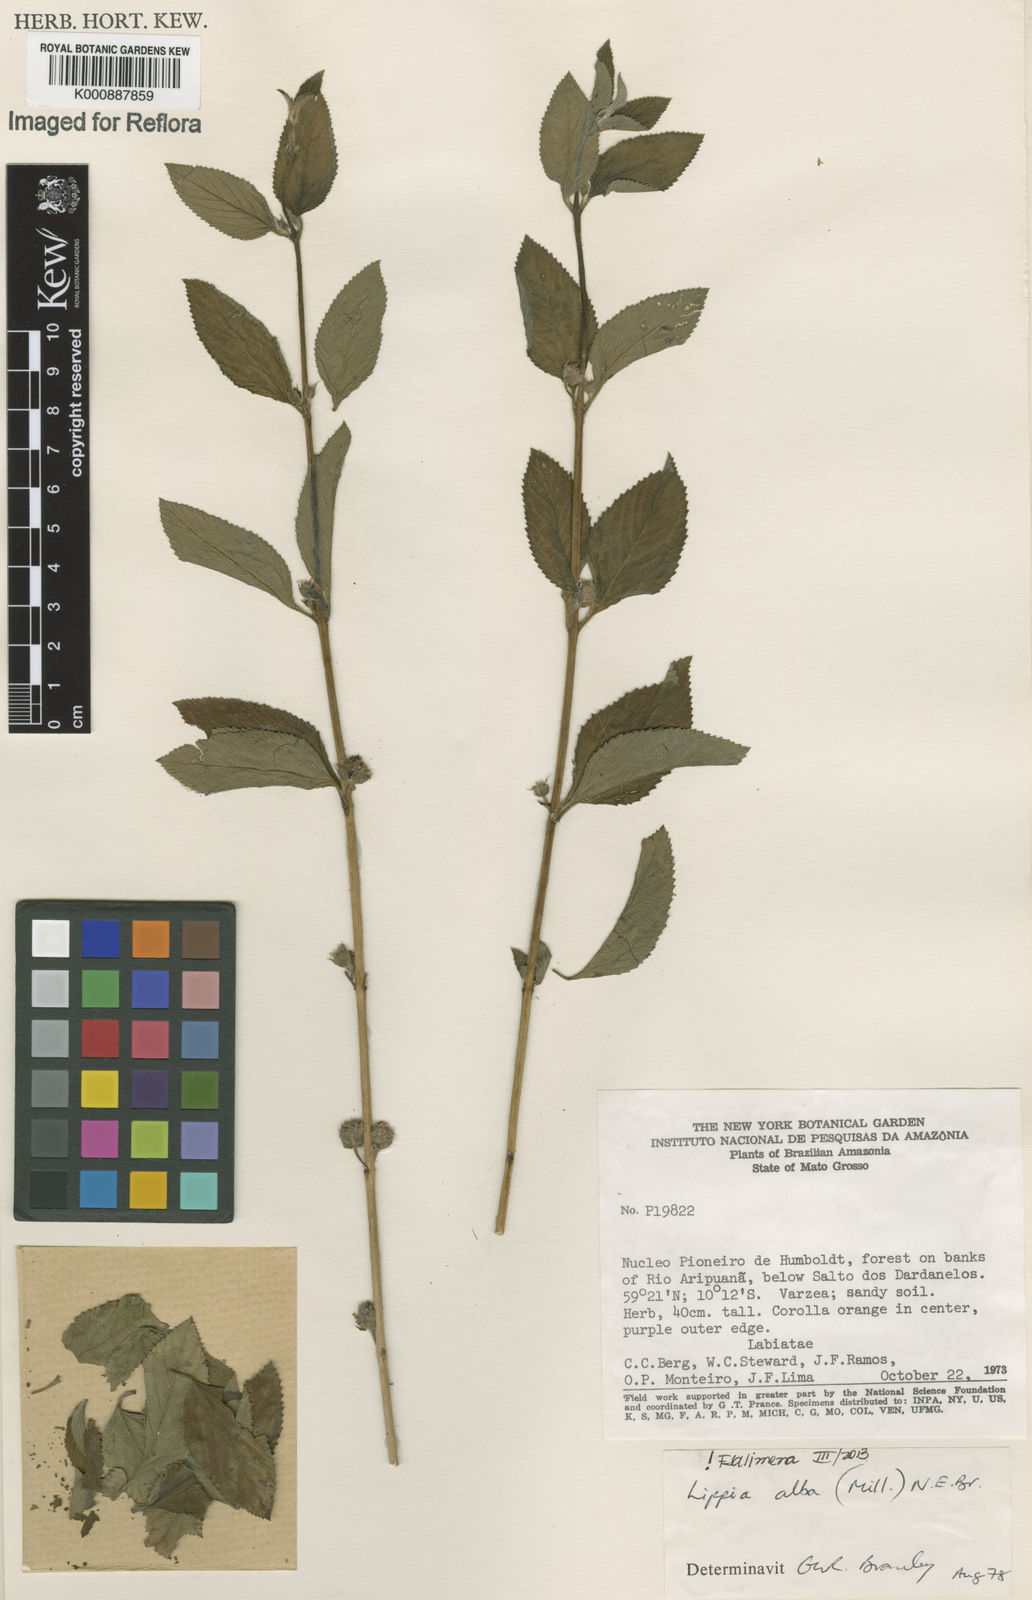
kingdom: Plantae
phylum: Tracheophyta
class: Magnoliopsida
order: Lamiales
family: Verbenaceae
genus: Lippia
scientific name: Lippia
